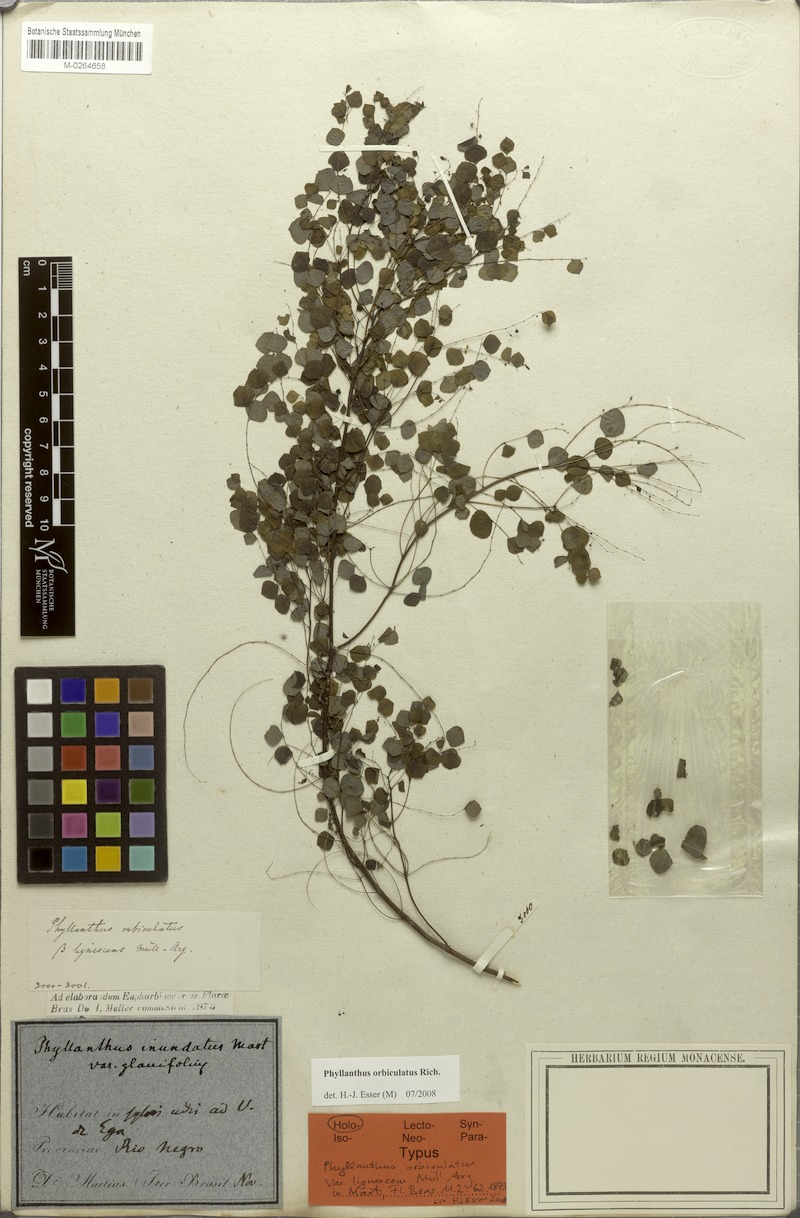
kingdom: Plantae
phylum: Tracheophyta
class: Magnoliopsida
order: Malpighiales
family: Phyllanthaceae
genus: Phyllanthus
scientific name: Phyllanthus orbiculatus
